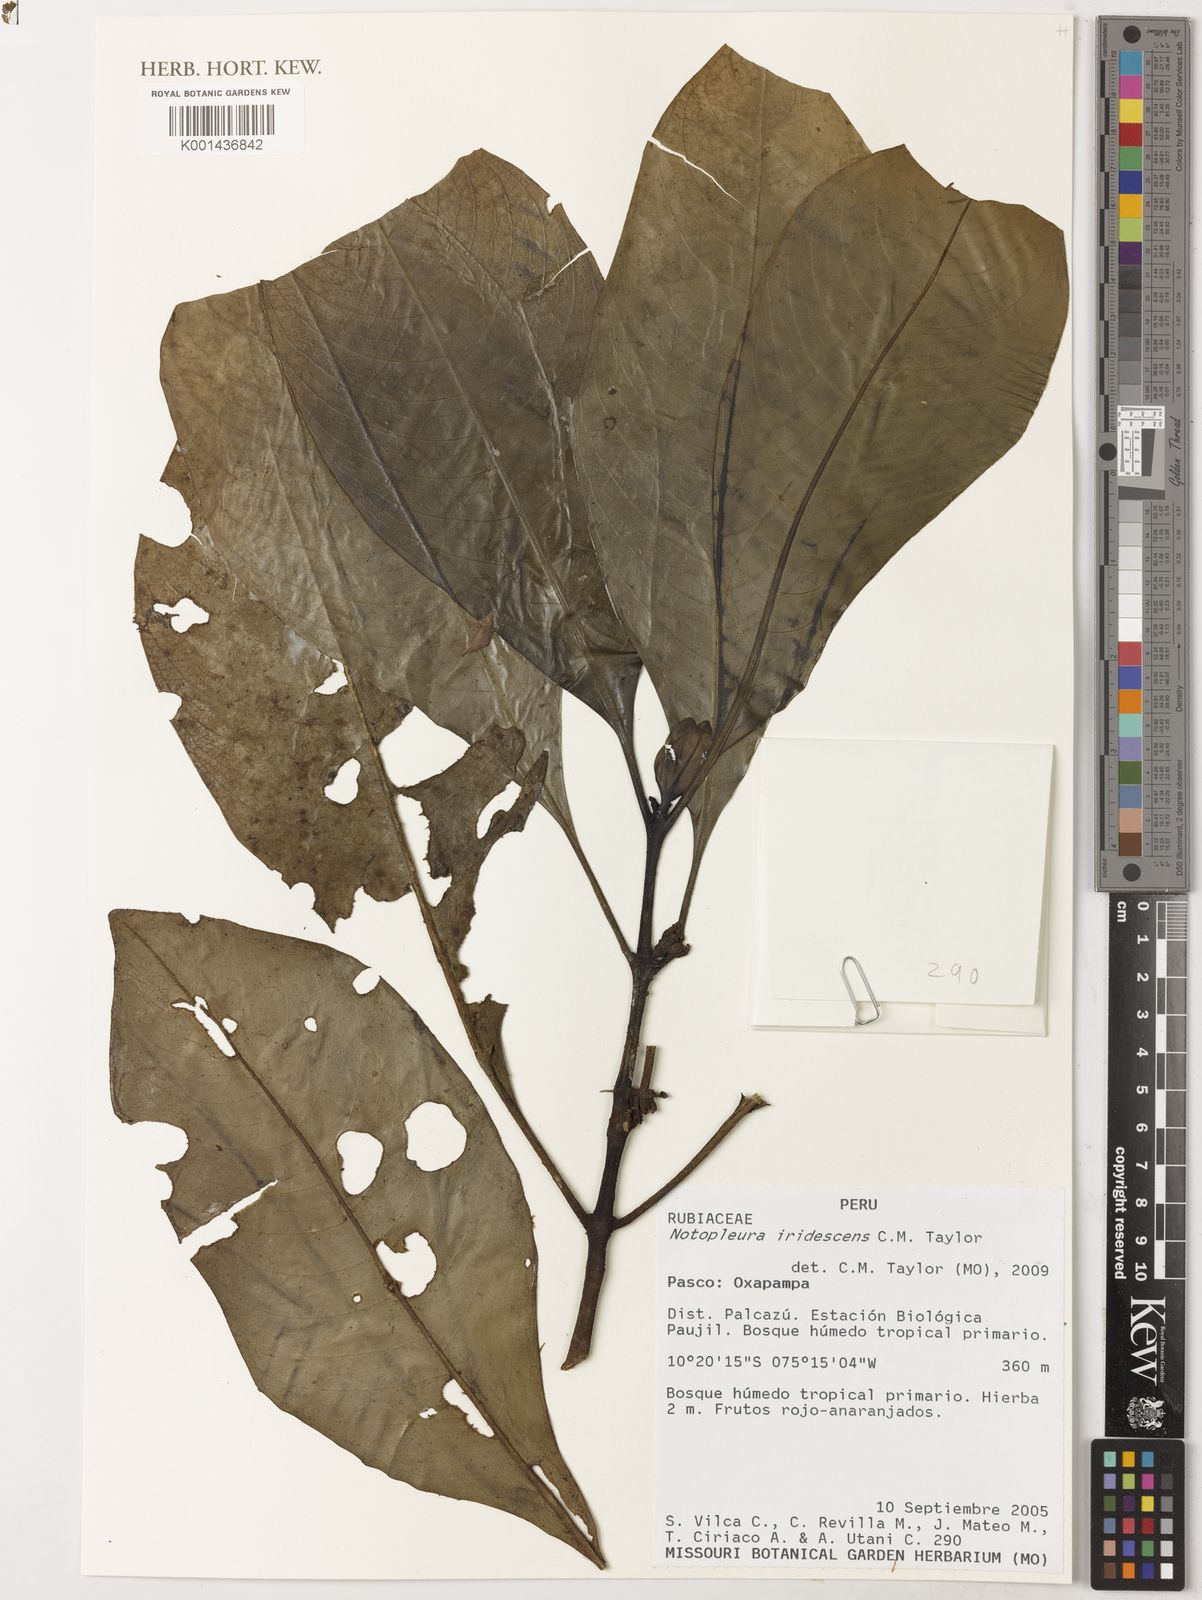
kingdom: Plantae
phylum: Tracheophyta
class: Magnoliopsida
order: Gentianales
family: Rubiaceae
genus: Notopleura
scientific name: Notopleura iridescens
